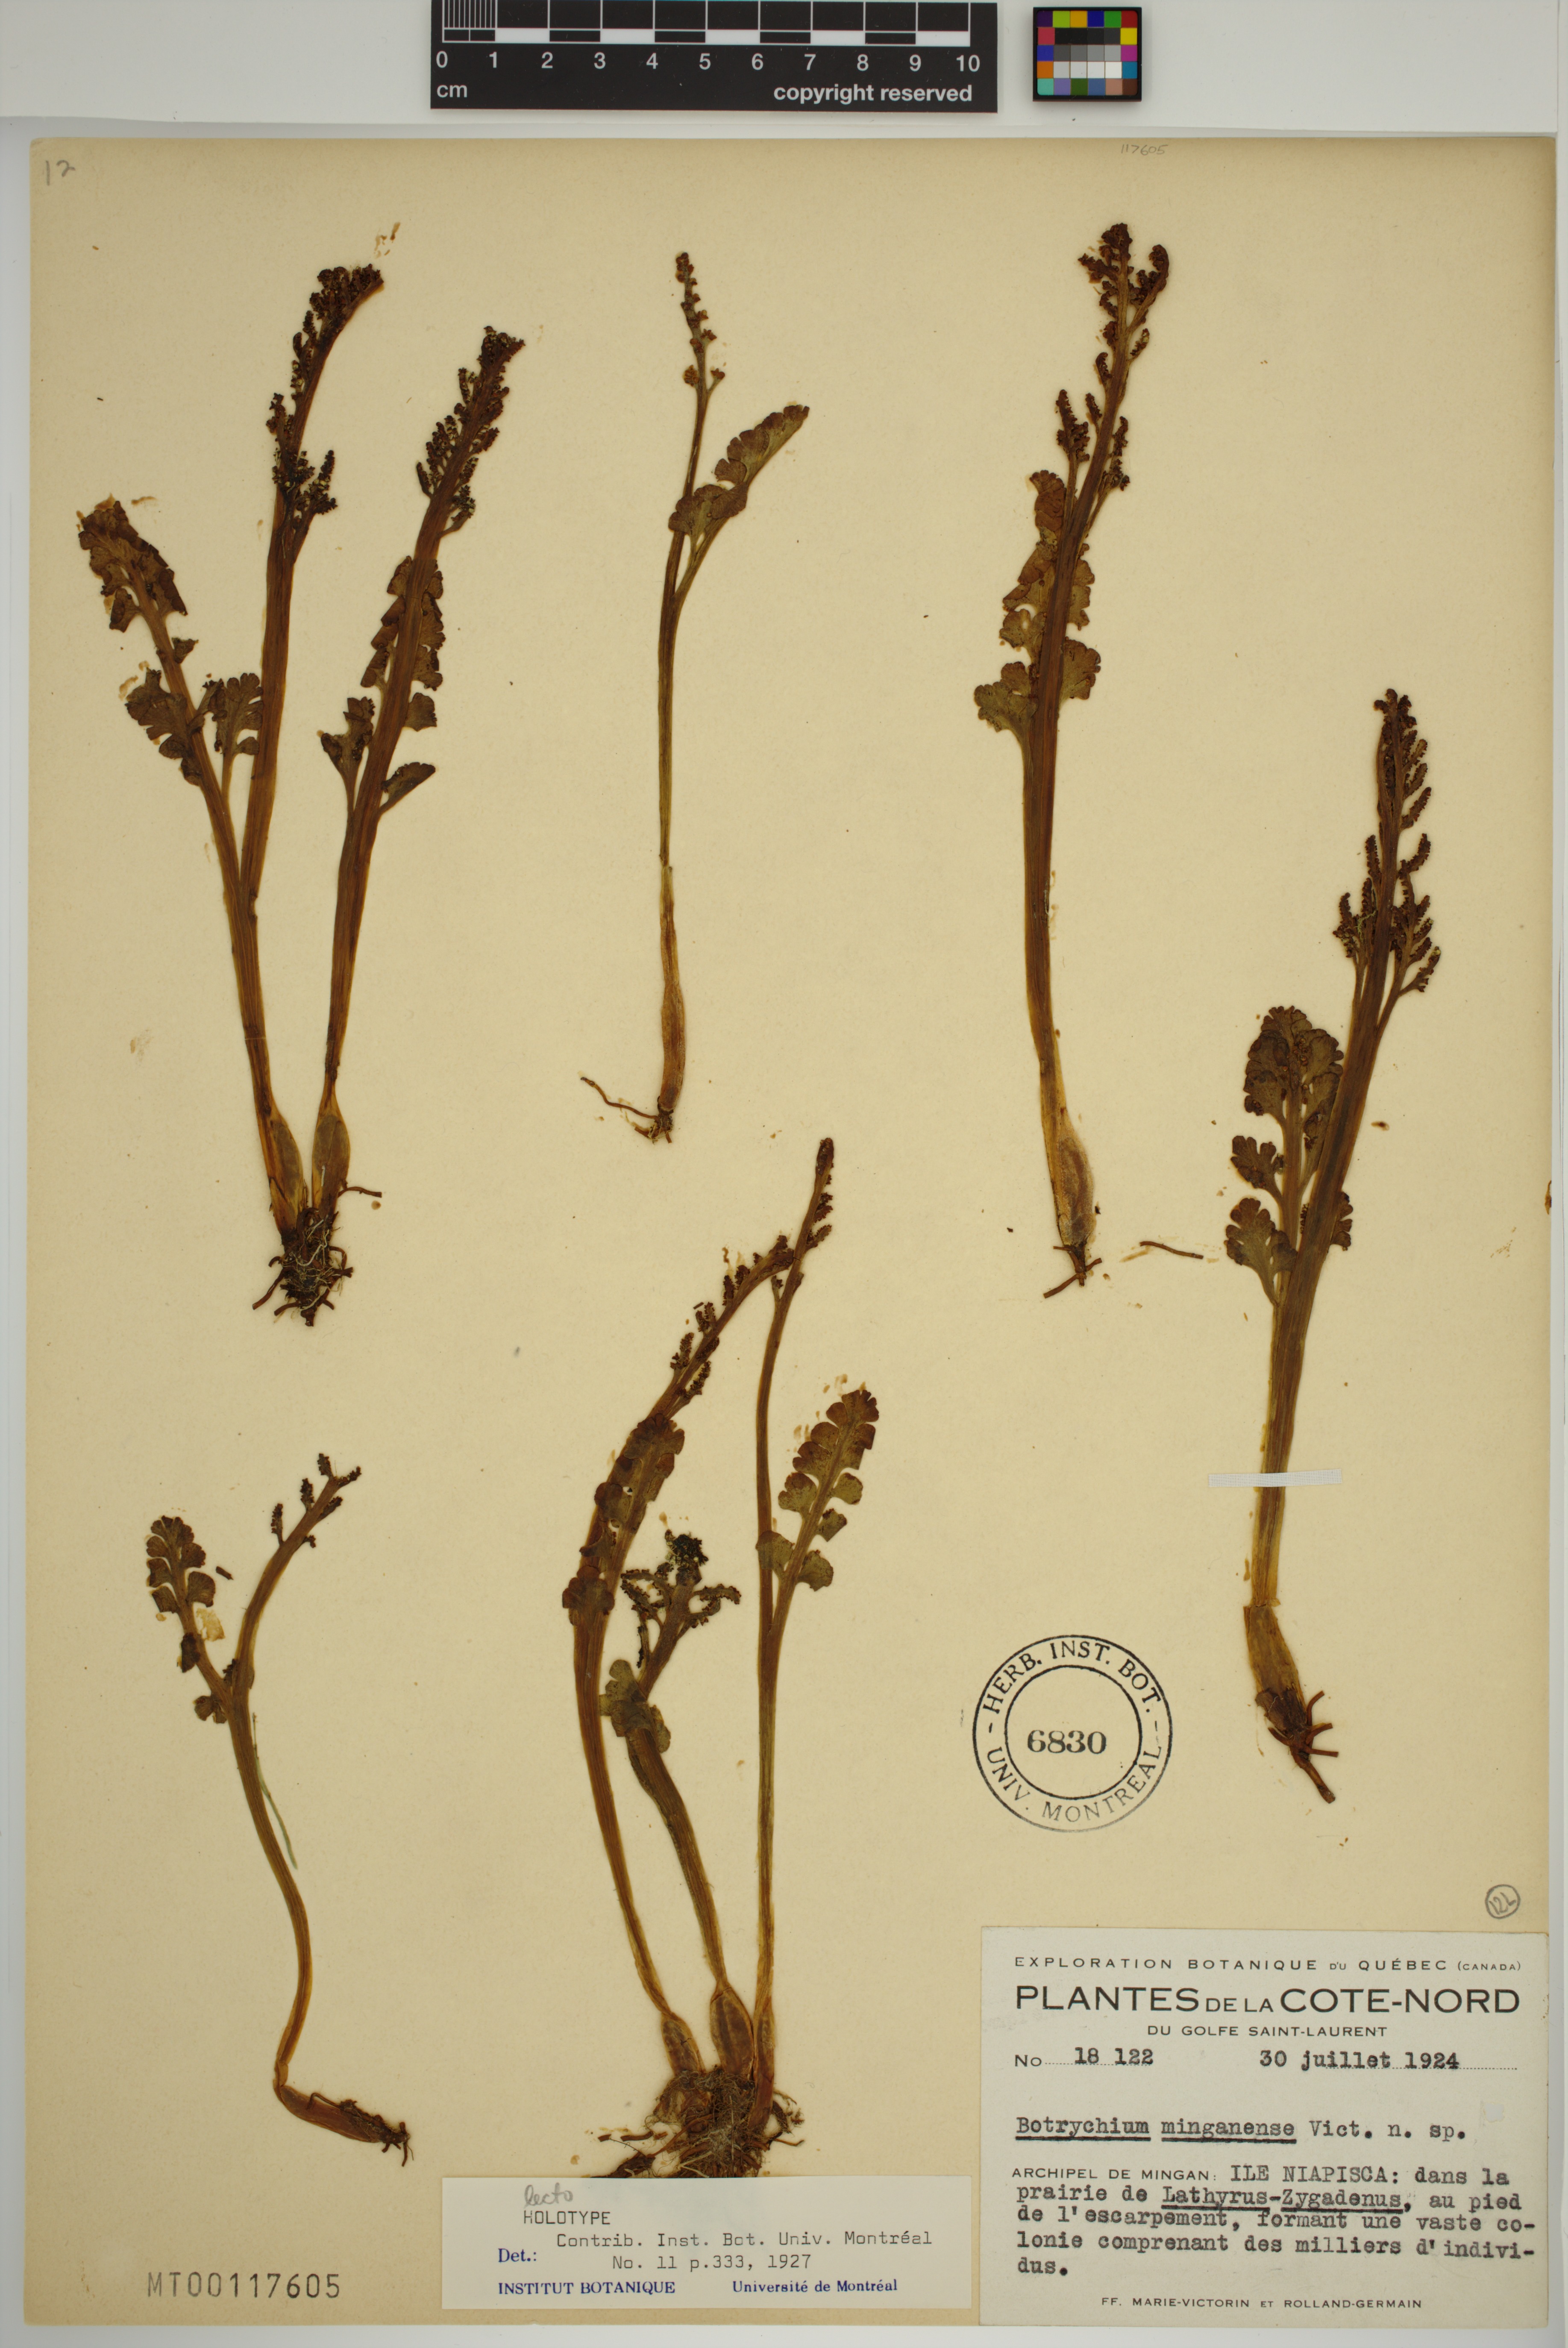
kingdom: Plantae
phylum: Tracheophyta
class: Polypodiopsida
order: Ophioglossales
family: Ophioglossaceae
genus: Botrychium
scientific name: Botrychium minganense
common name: Mingan grapefern
